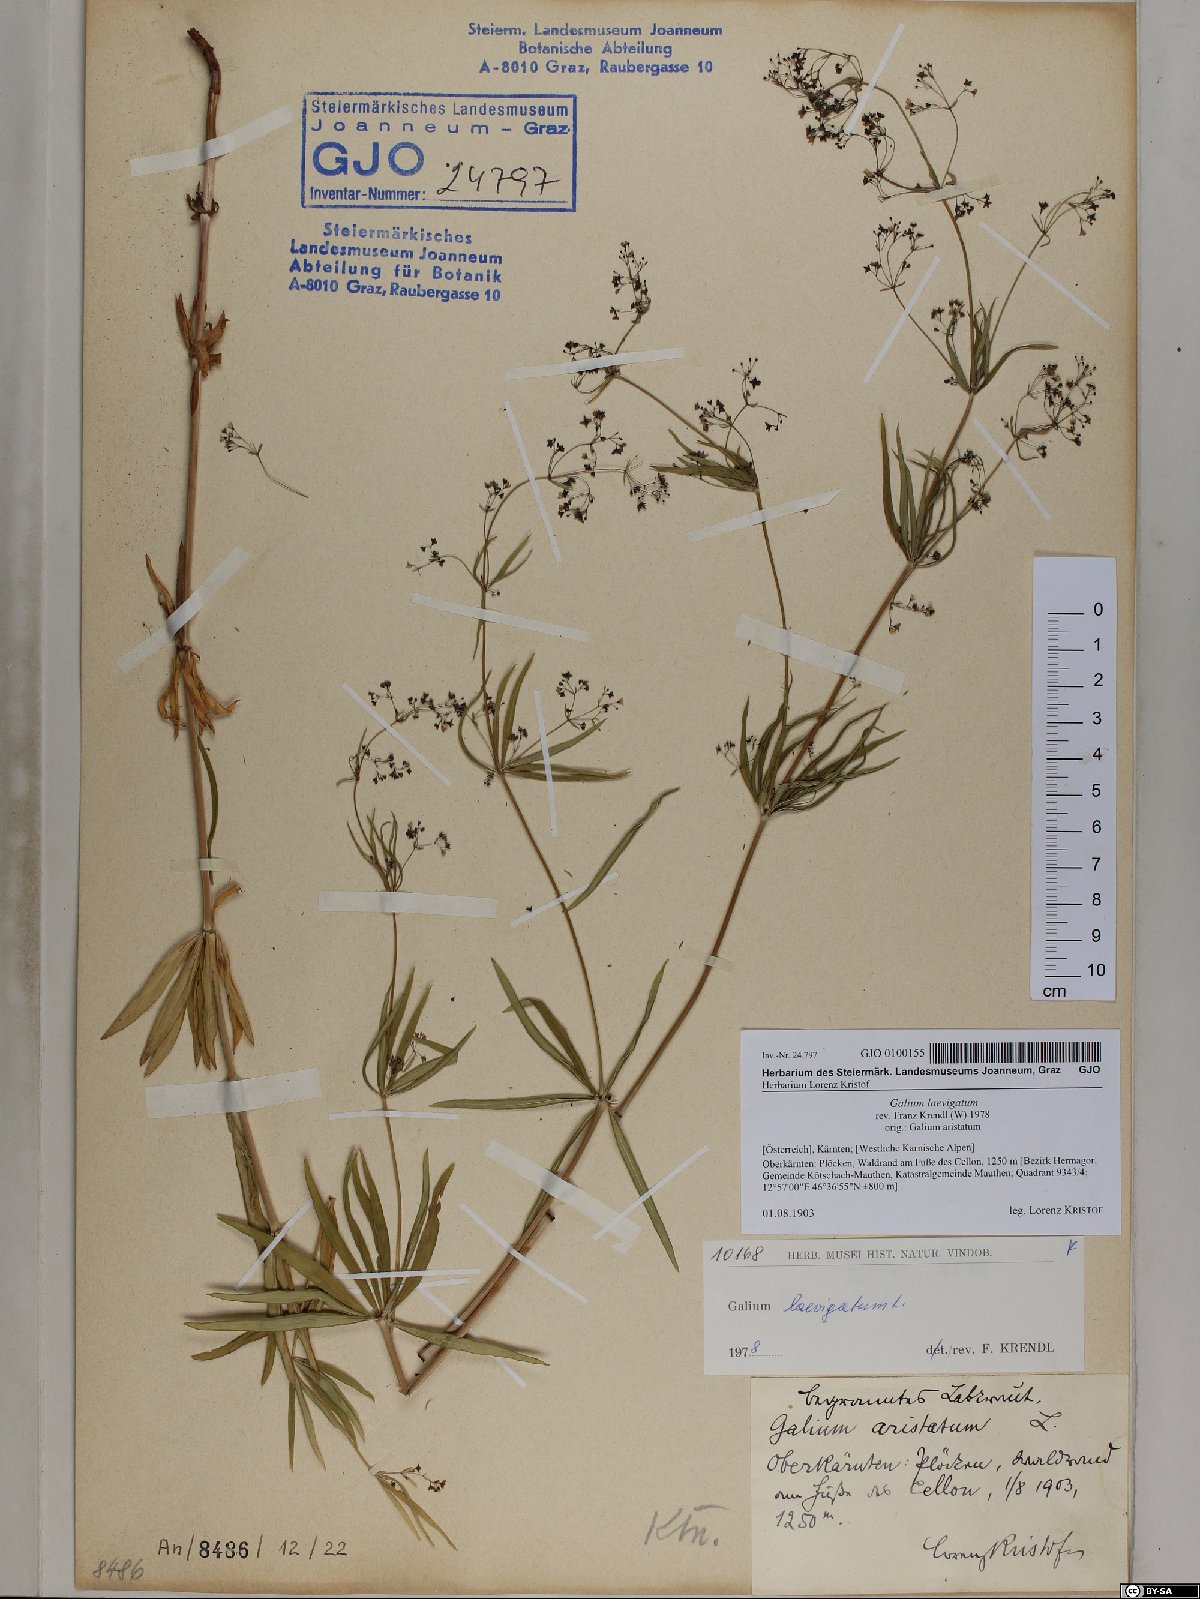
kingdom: Plantae
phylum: Tracheophyta
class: Magnoliopsida
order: Gentianales
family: Rubiaceae
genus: Galium
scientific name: Galium laevigatum
